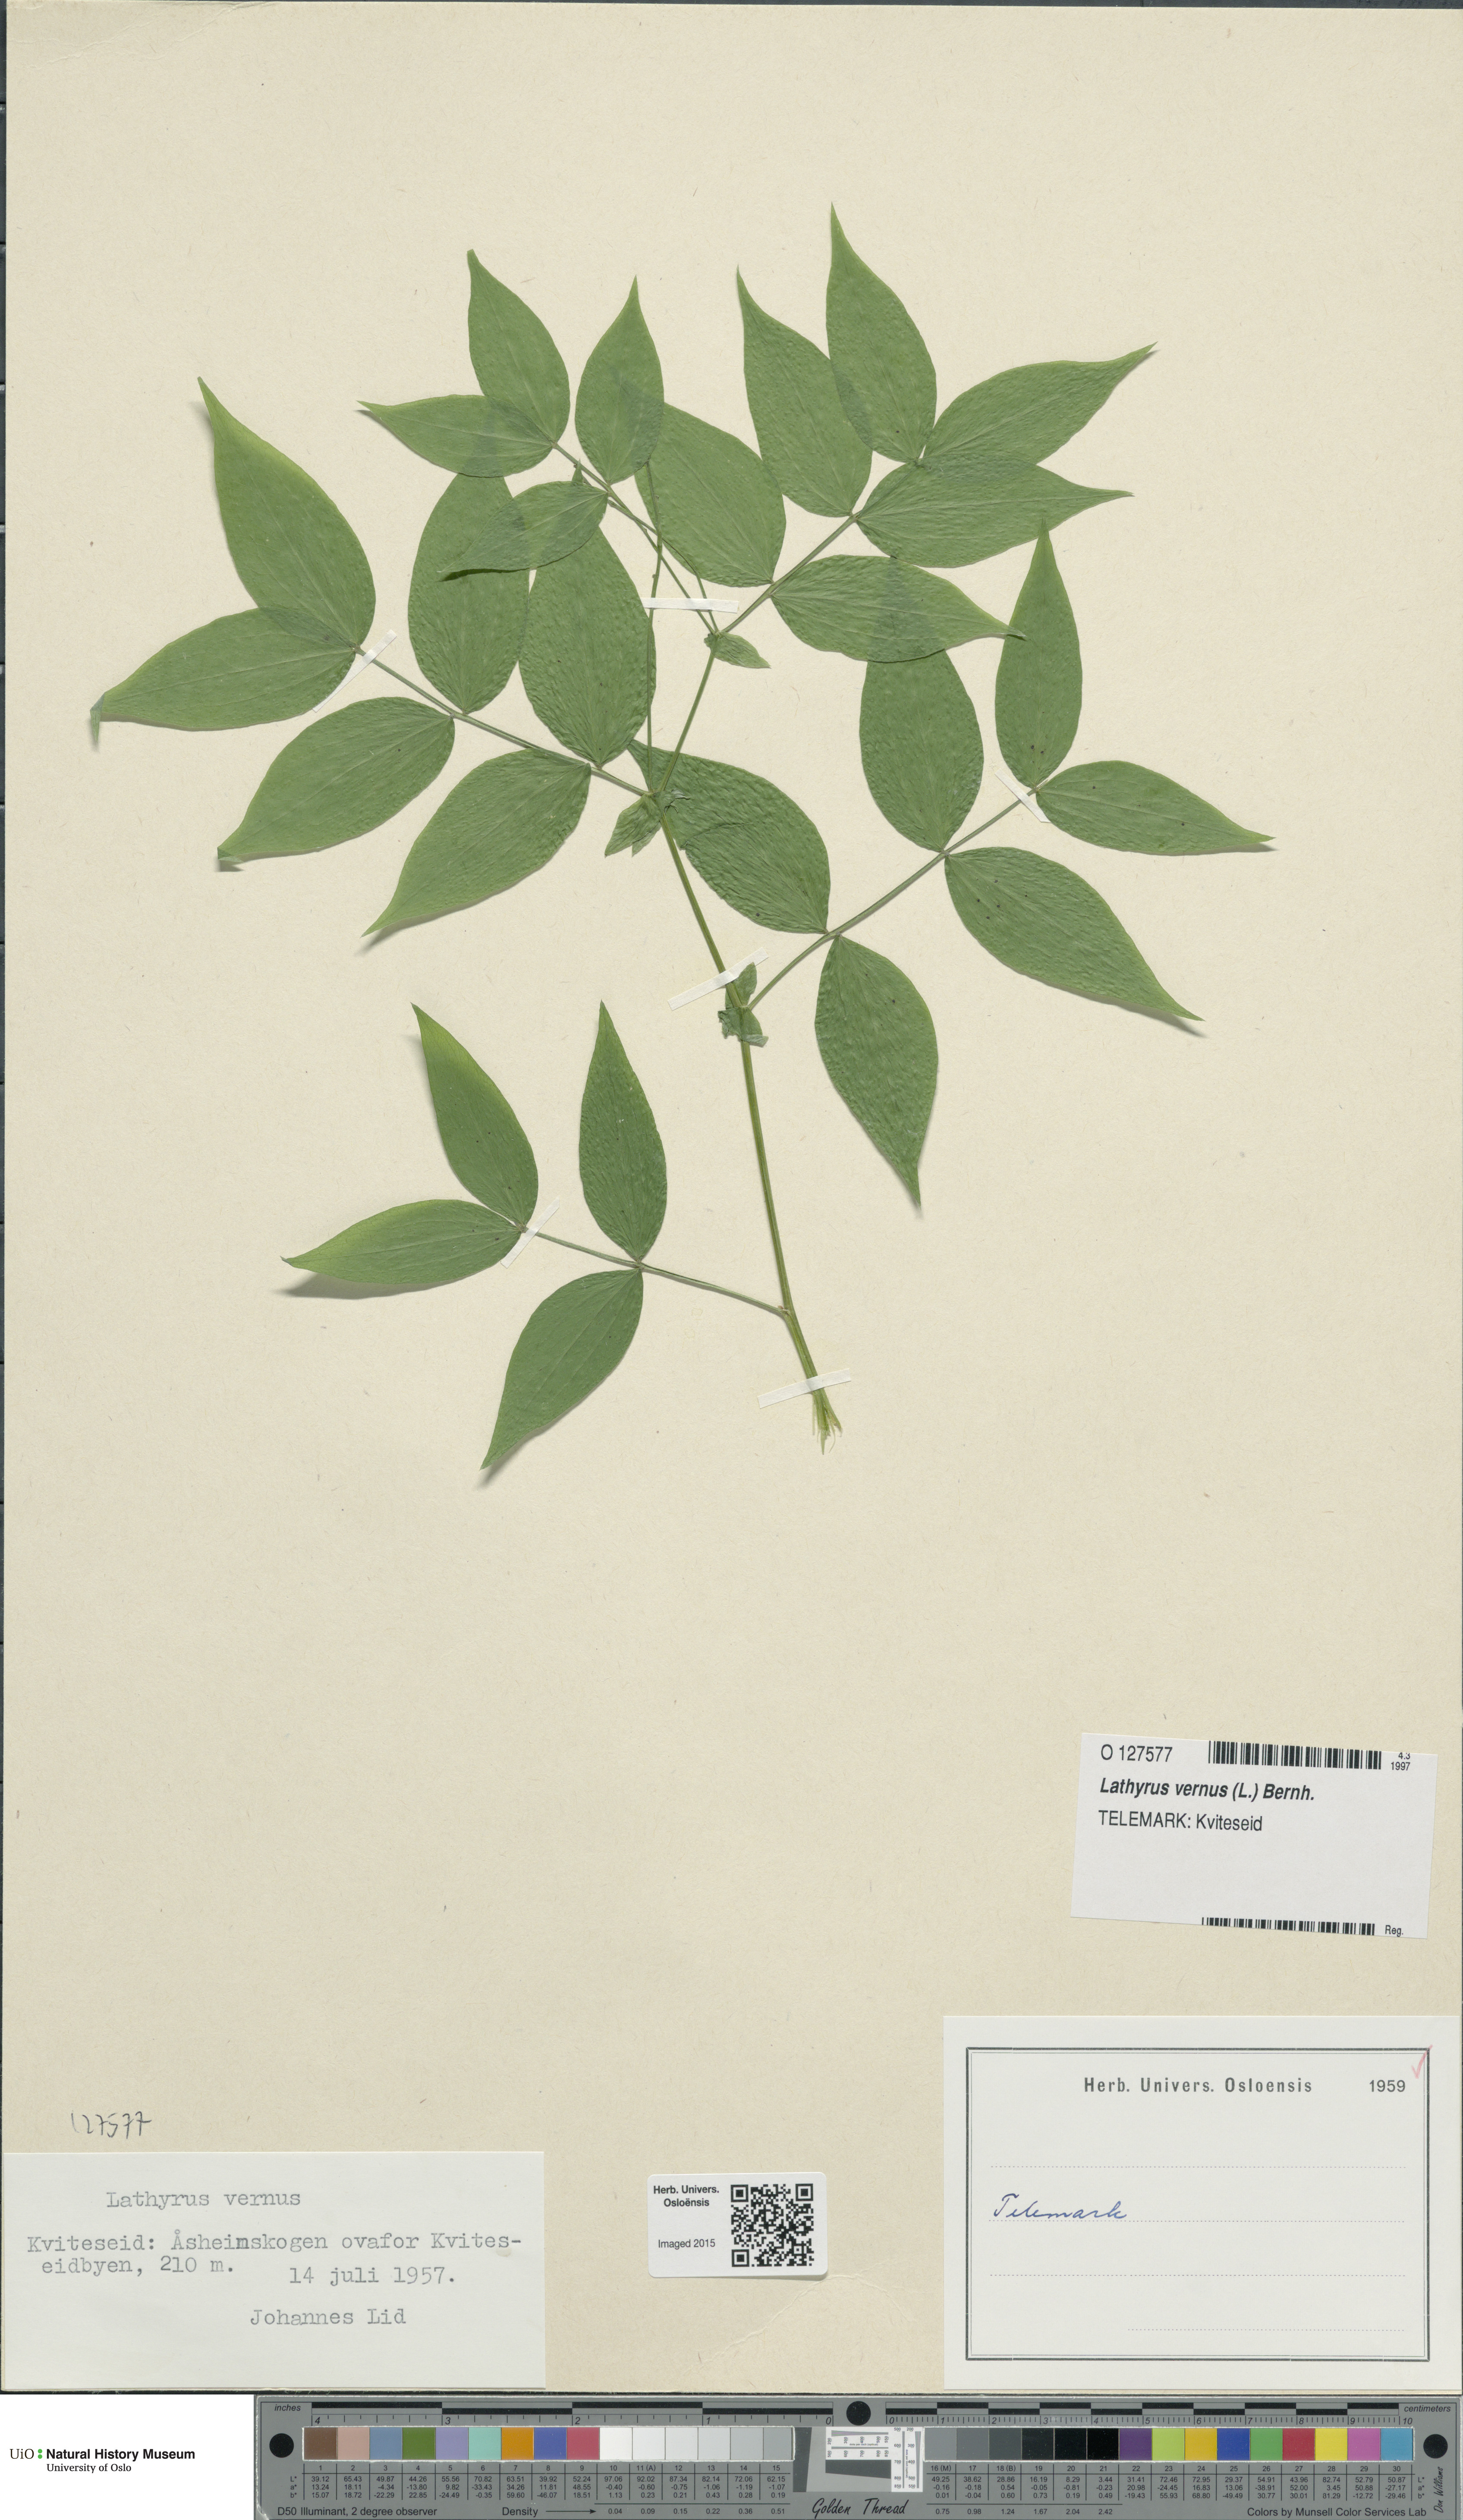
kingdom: Plantae
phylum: Tracheophyta
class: Magnoliopsida
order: Fabales
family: Fabaceae
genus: Lathyrus
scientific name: Lathyrus vernus
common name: Spring pea
